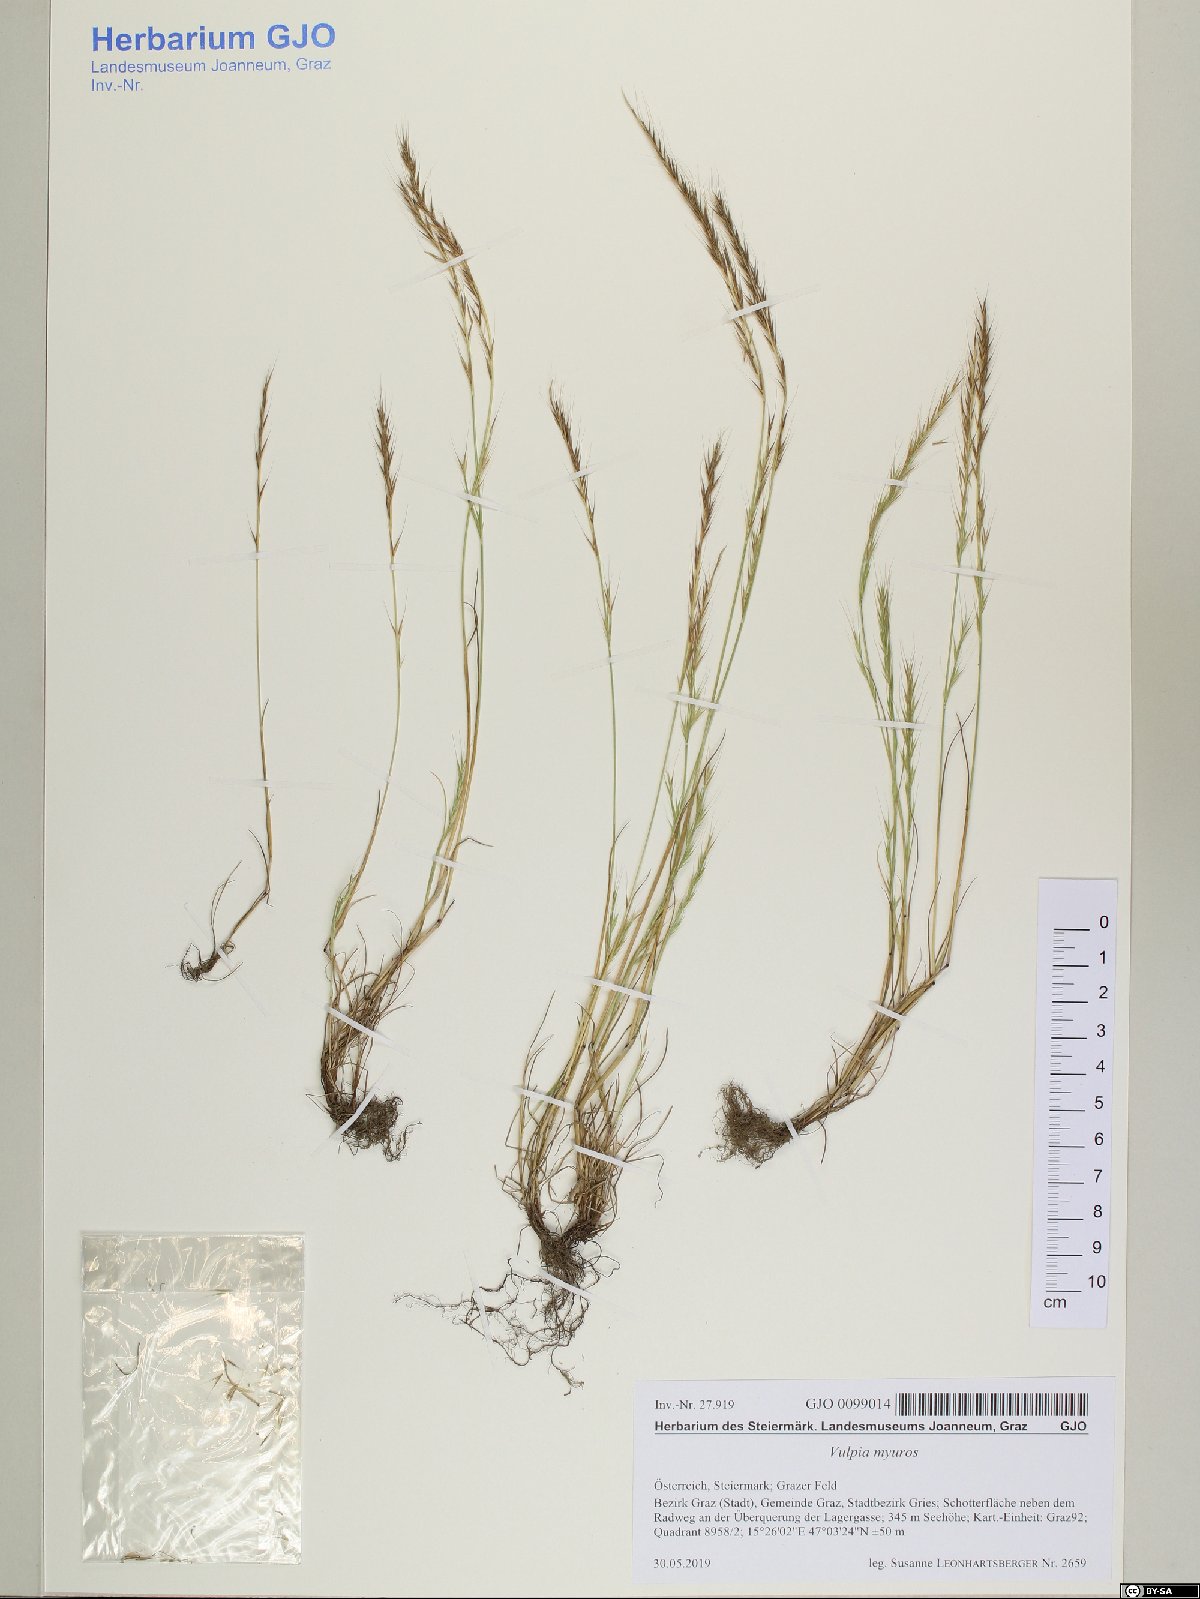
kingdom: Plantae
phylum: Tracheophyta
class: Liliopsida
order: Poales
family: Poaceae
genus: Festuca
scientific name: Festuca myuros
